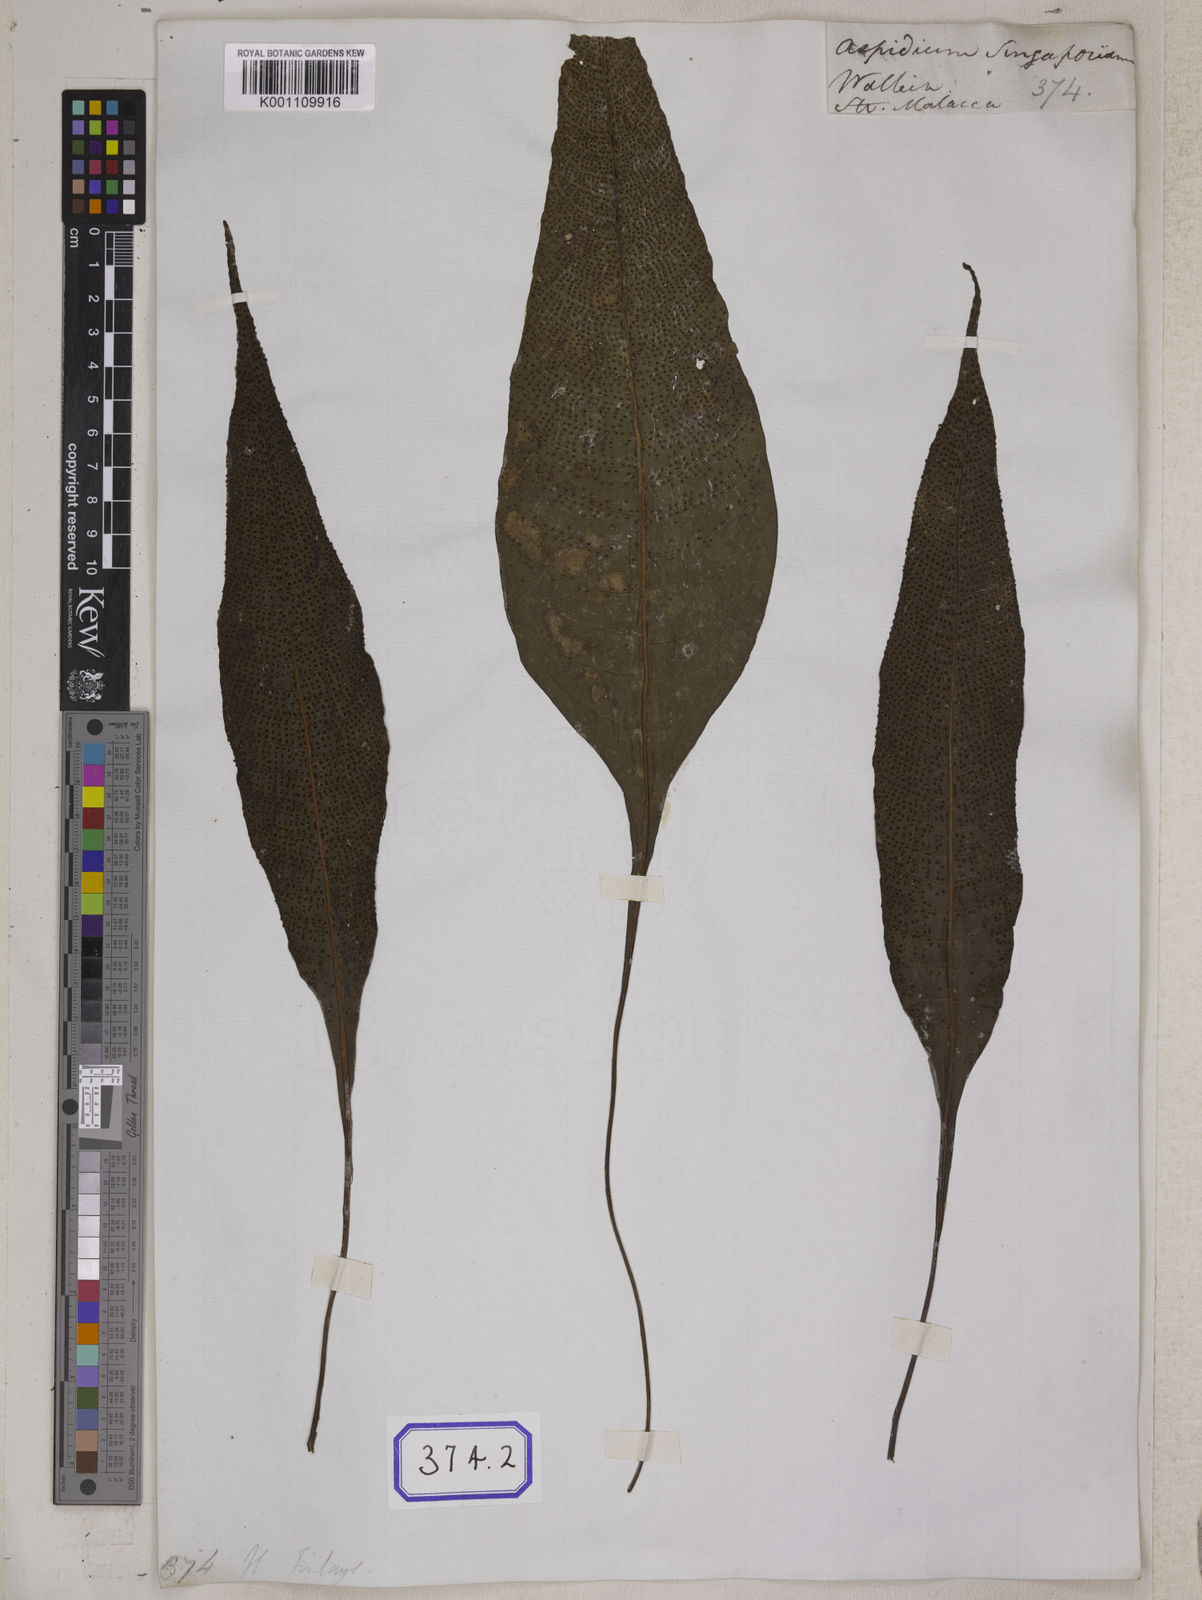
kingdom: Plantae
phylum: Tracheophyta
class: Polypodiopsida
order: Polypodiales
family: Tectariaceae
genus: Tectaria
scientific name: Tectaria Aspidium spec
